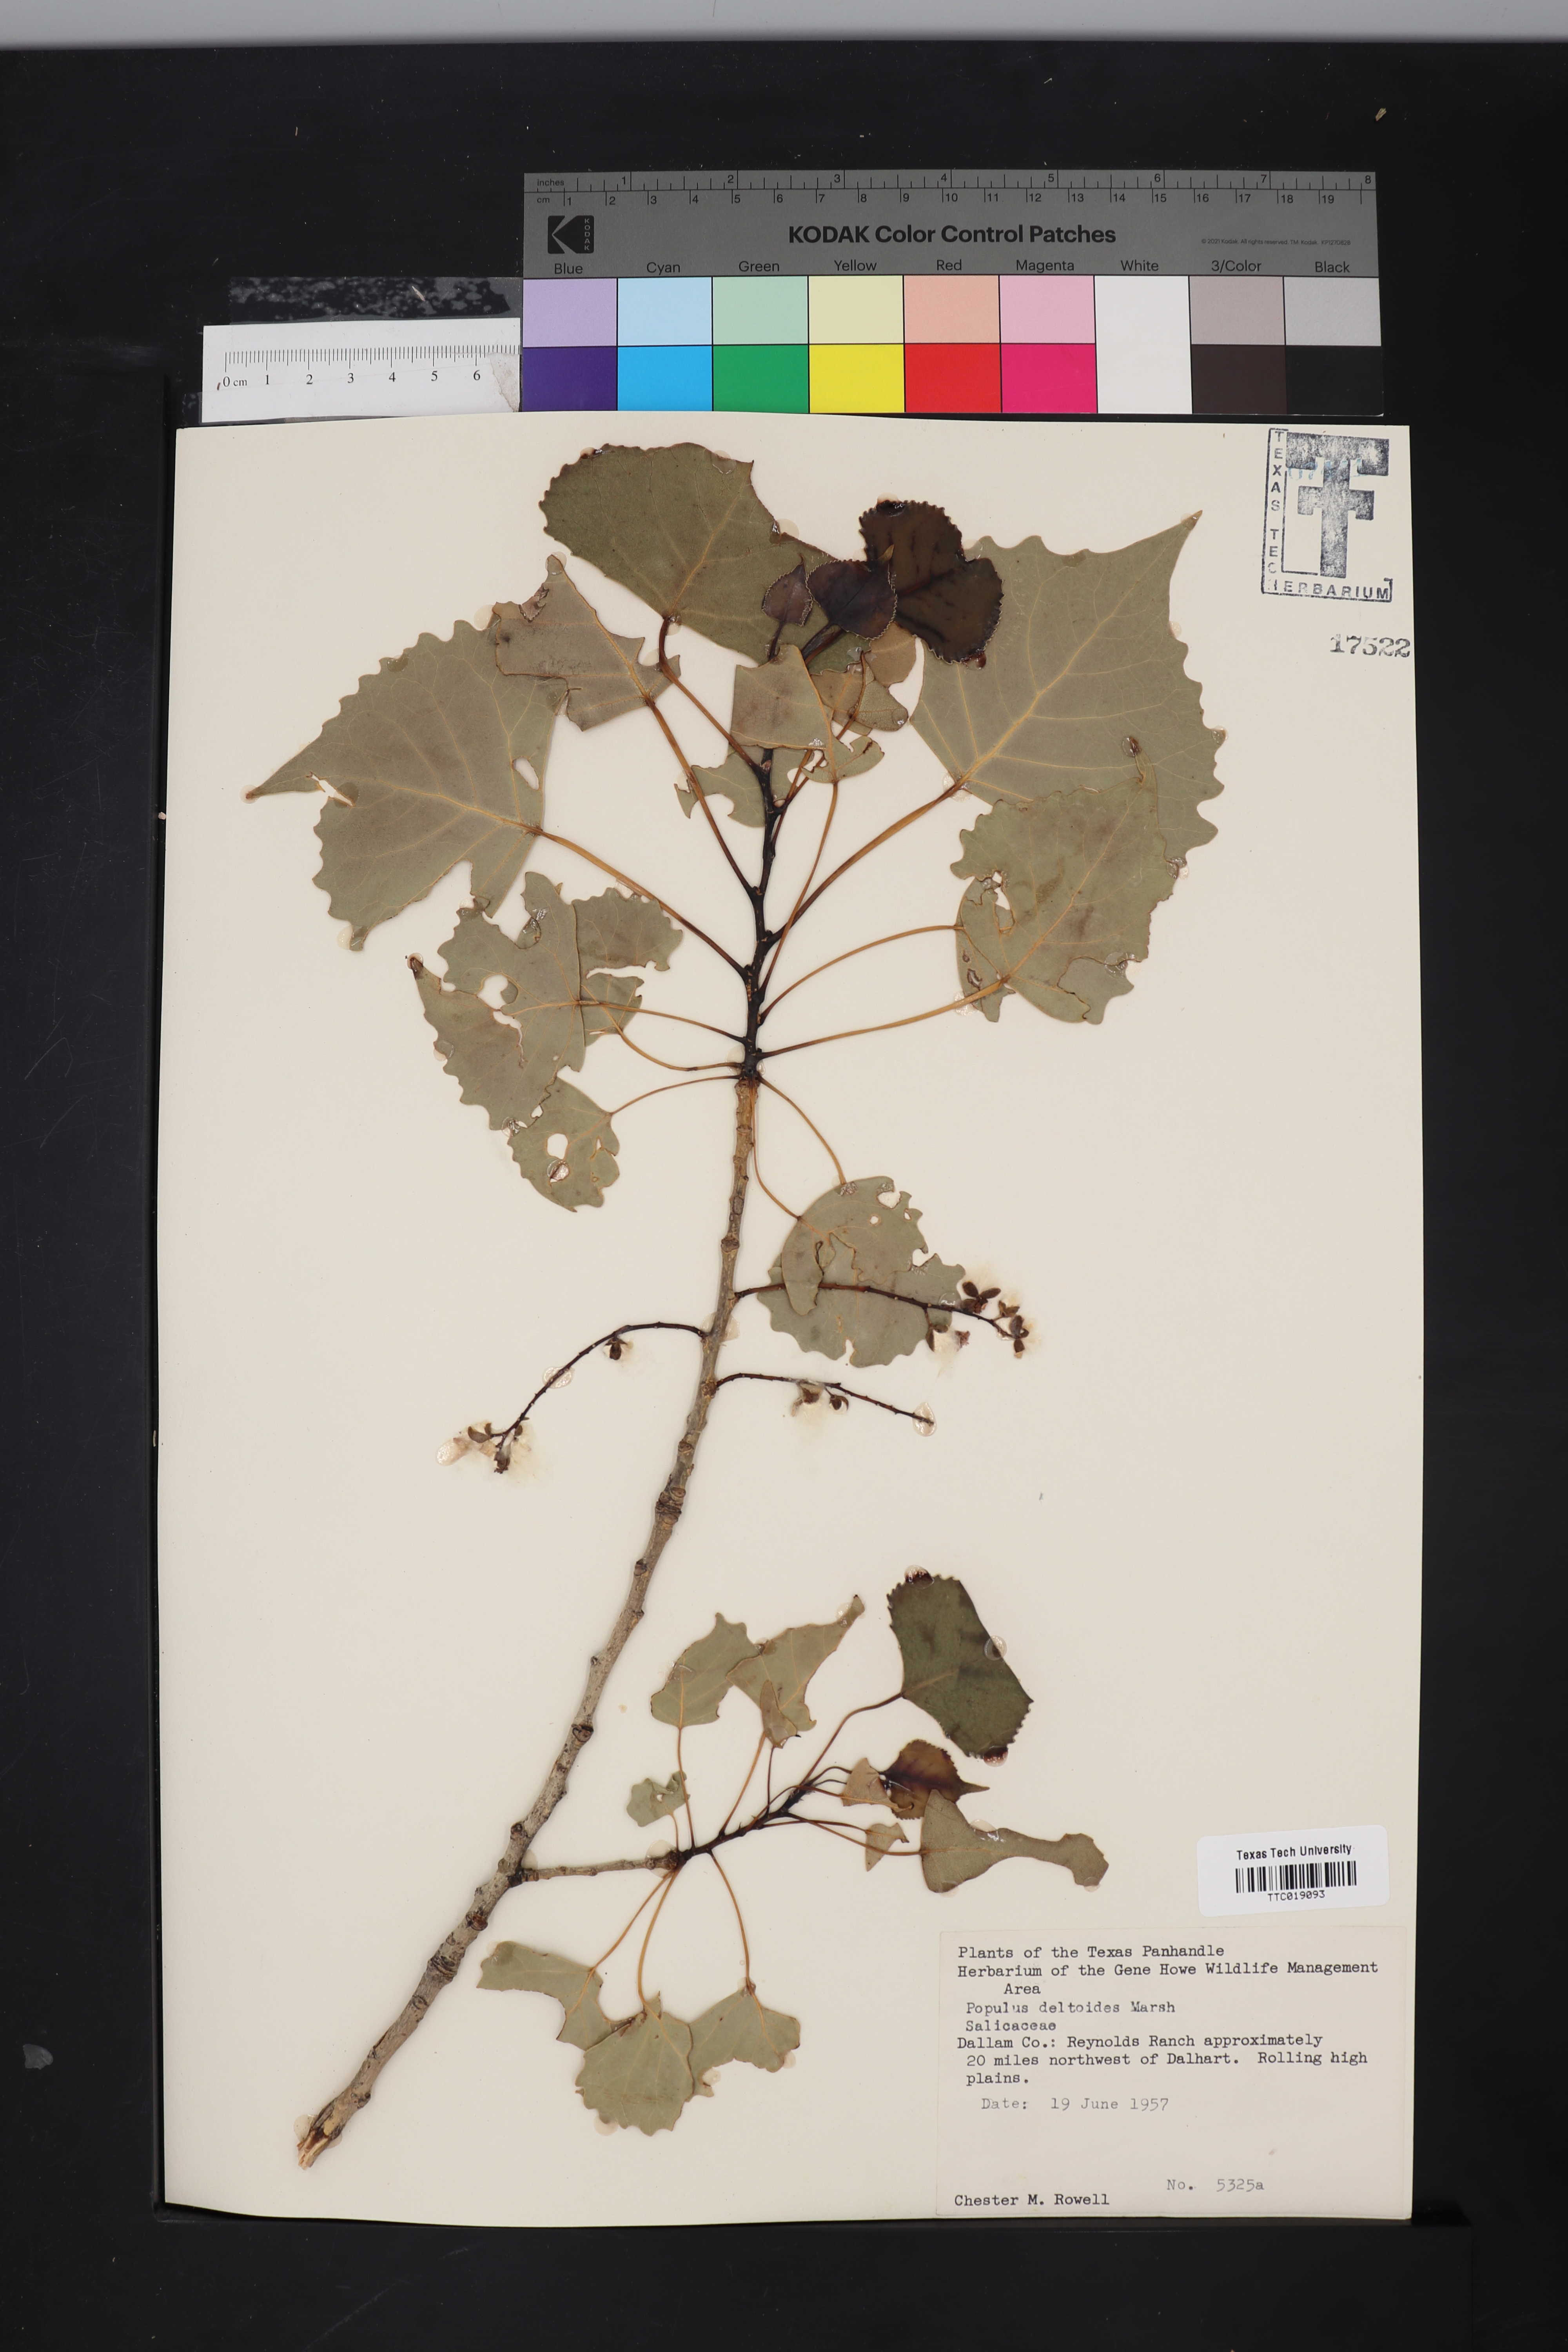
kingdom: Plantae
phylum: Tracheophyta
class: Magnoliopsida
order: Malpighiales
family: Salicaceae
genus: Populus
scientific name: Populus deltoides
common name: Eastern cottonwood
